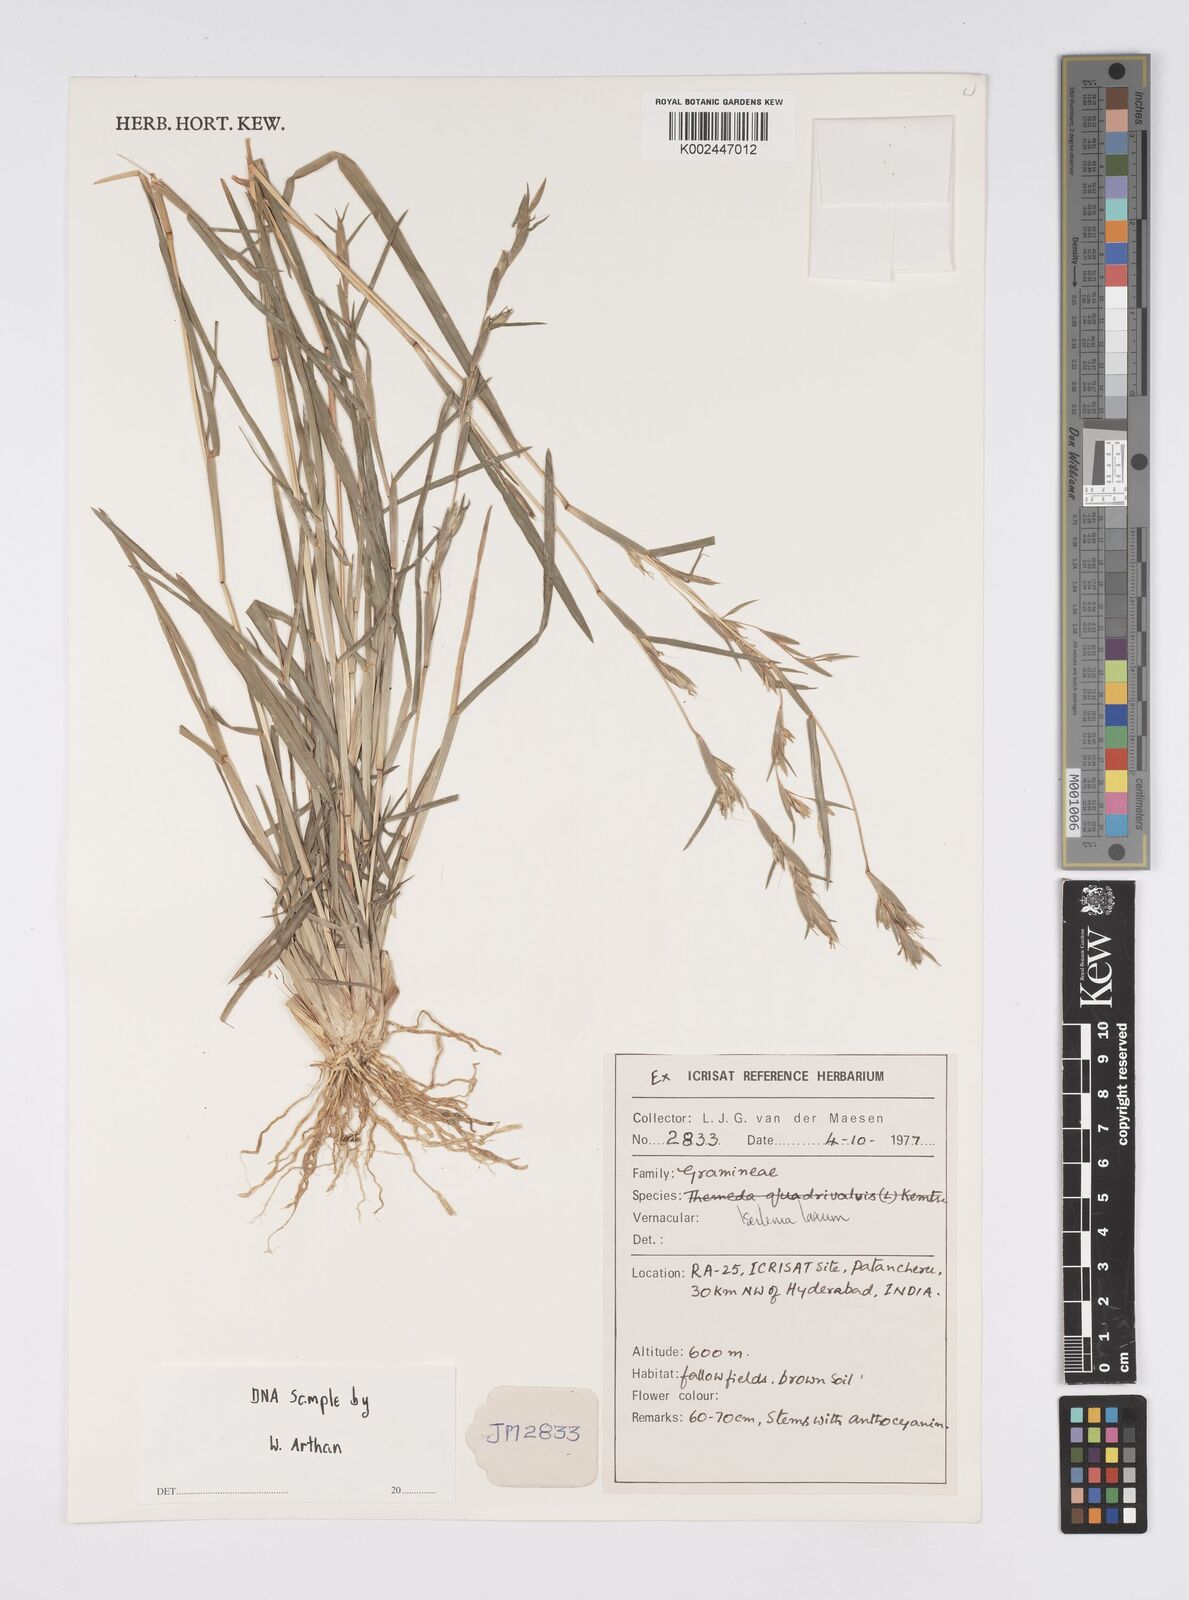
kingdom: Plantae
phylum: Tracheophyta
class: Liliopsida
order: Poales
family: Poaceae
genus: Iseilema
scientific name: Iseilema prostratum
